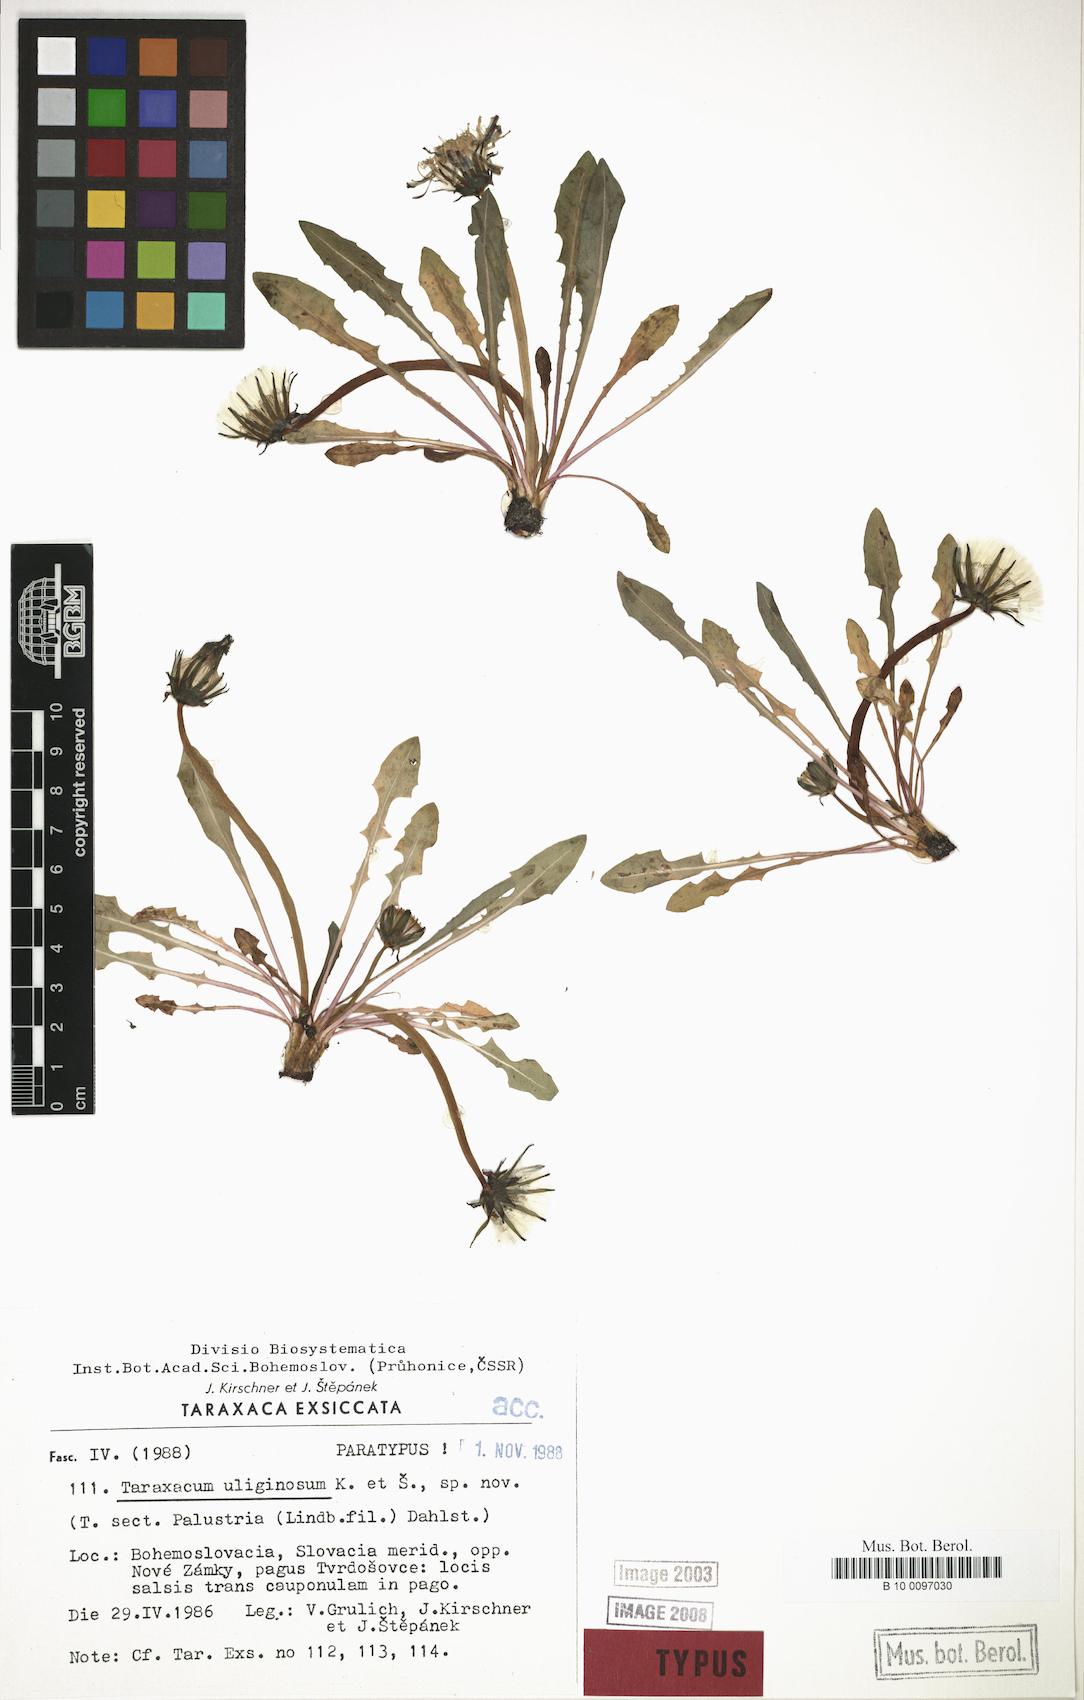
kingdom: Plantae
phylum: Tracheophyta
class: Magnoliopsida
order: Asterales
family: Asteraceae
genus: Taraxacum
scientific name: Taraxacum uliginosum
